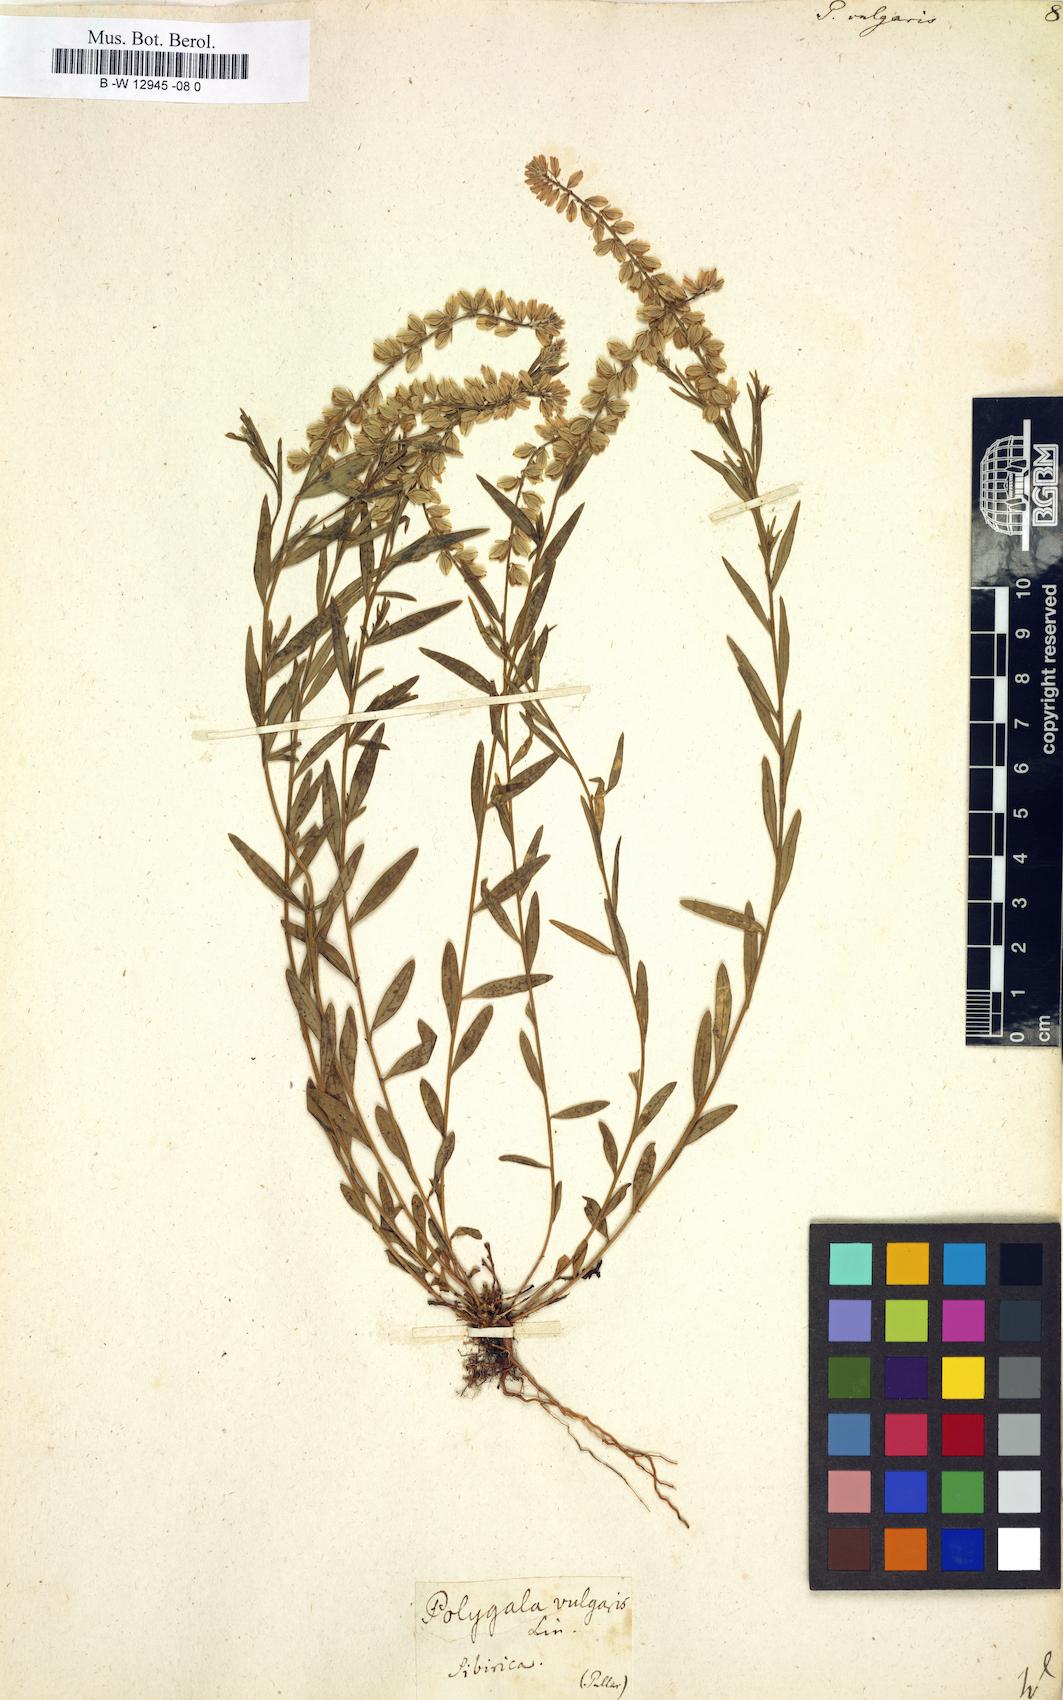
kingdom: Plantae
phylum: Tracheophyta
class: Magnoliopsida
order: Fabales
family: Polygalaceae
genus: Polygala
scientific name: Polygala vulgaris
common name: Common milkwort
